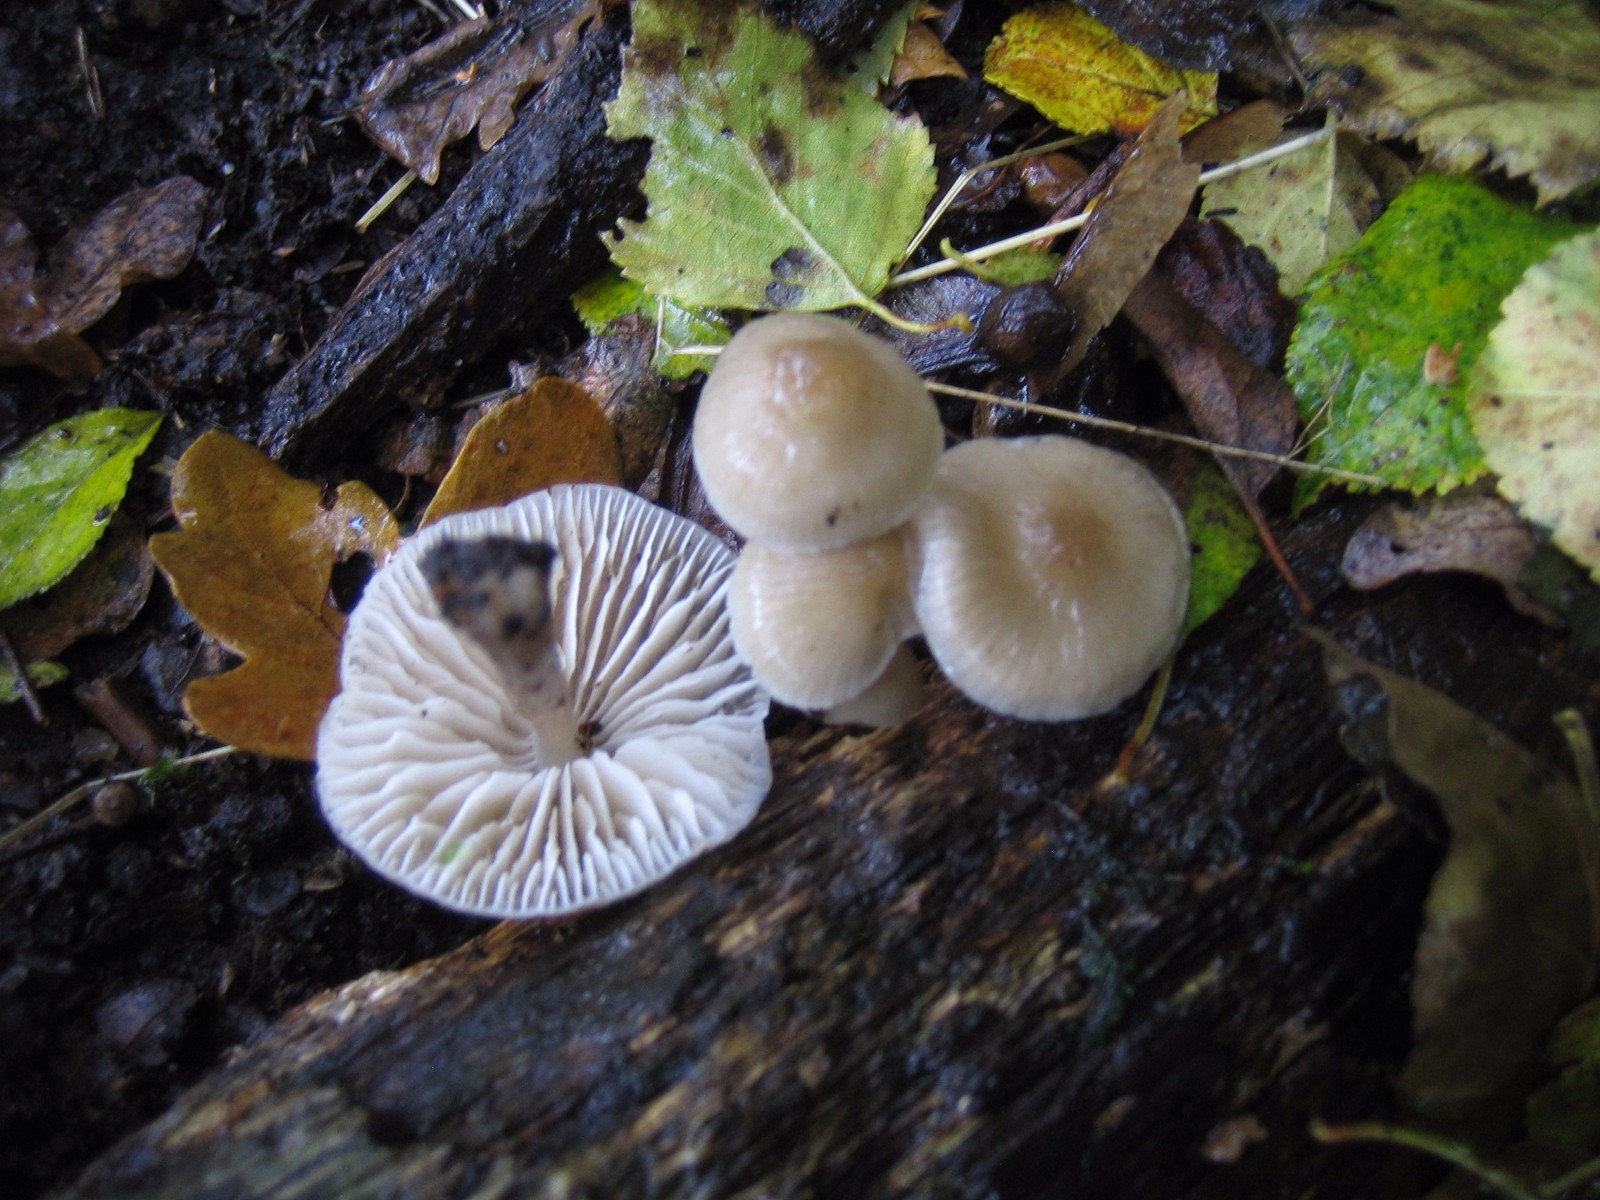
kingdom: Fungi
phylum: Basidiomycota
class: Agaricomycetes
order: Agaricales
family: Mycenaceae
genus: Mycena
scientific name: Mycena galericulata
